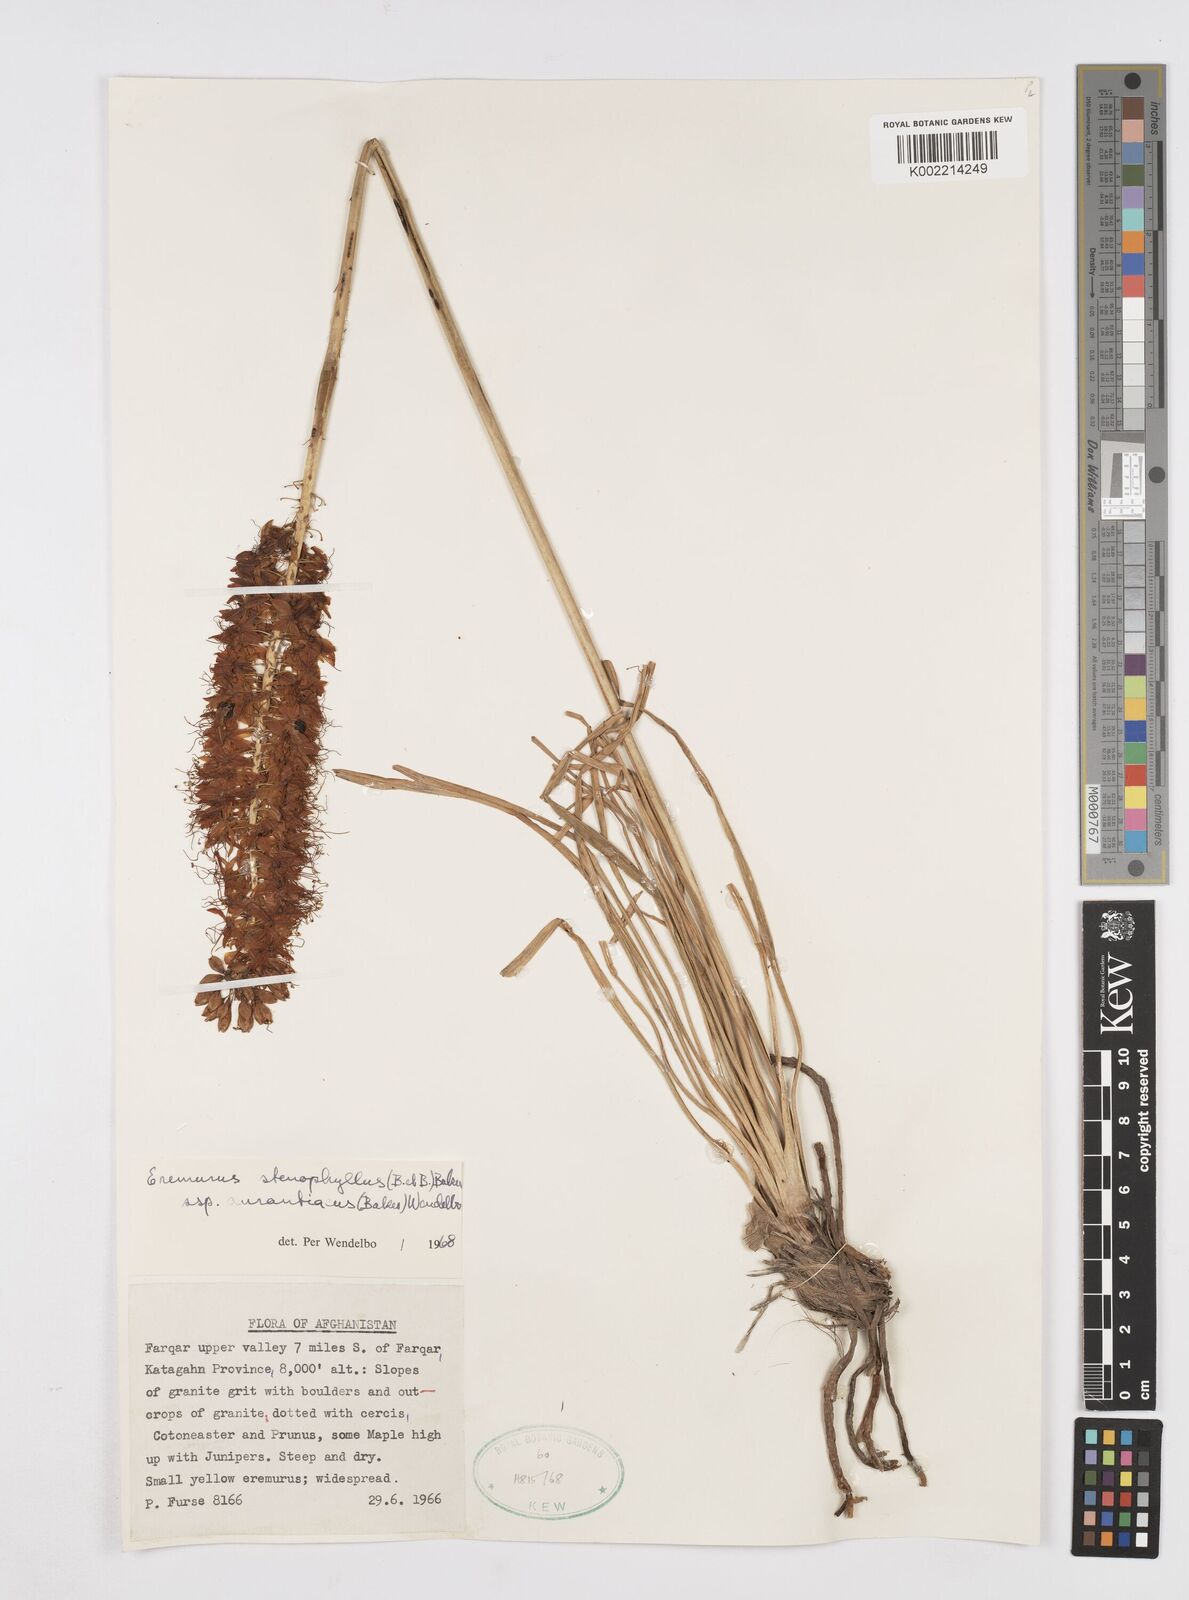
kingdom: Plantae
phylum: Tracheophyta
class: Liliopsida
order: Asparagales
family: Asphodelaceae
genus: Eremurus
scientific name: Eremurus stenophyllus
